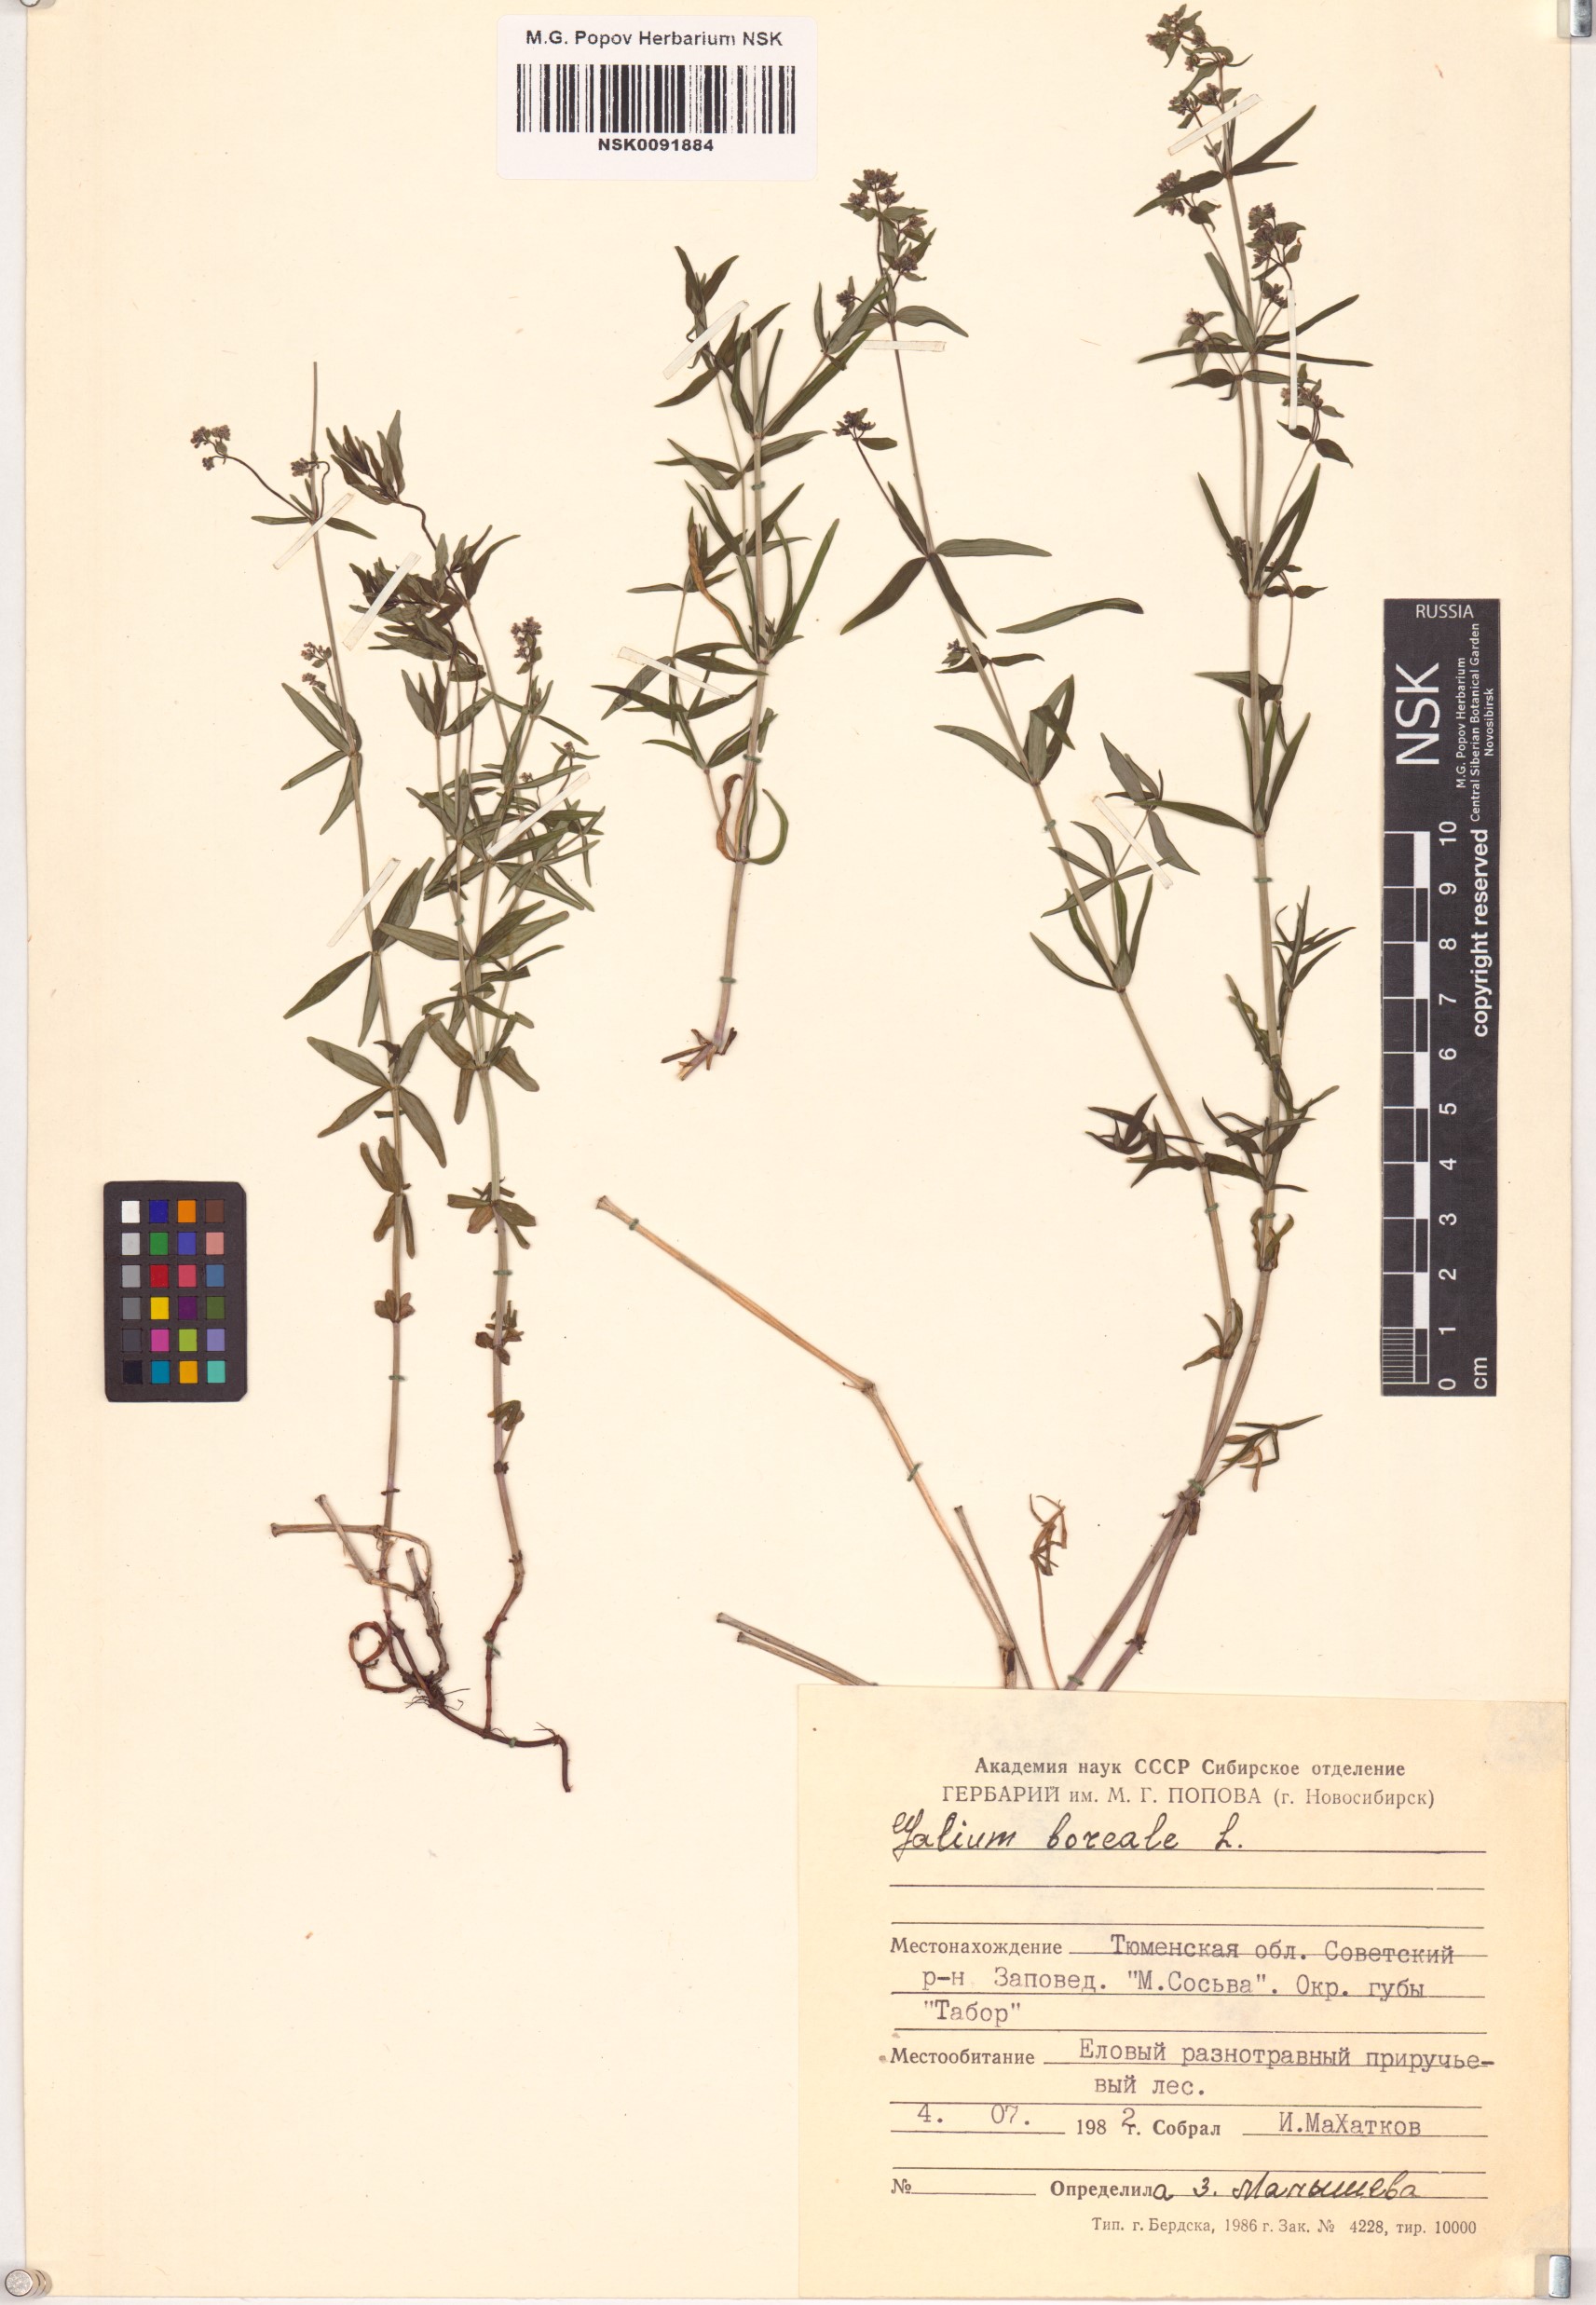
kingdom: Plantae
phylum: Tracheophyta
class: Magnoliopsida
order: Gentianales
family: Rubiaceae
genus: Galium
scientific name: Galium boreale
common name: Northern bedstraw
